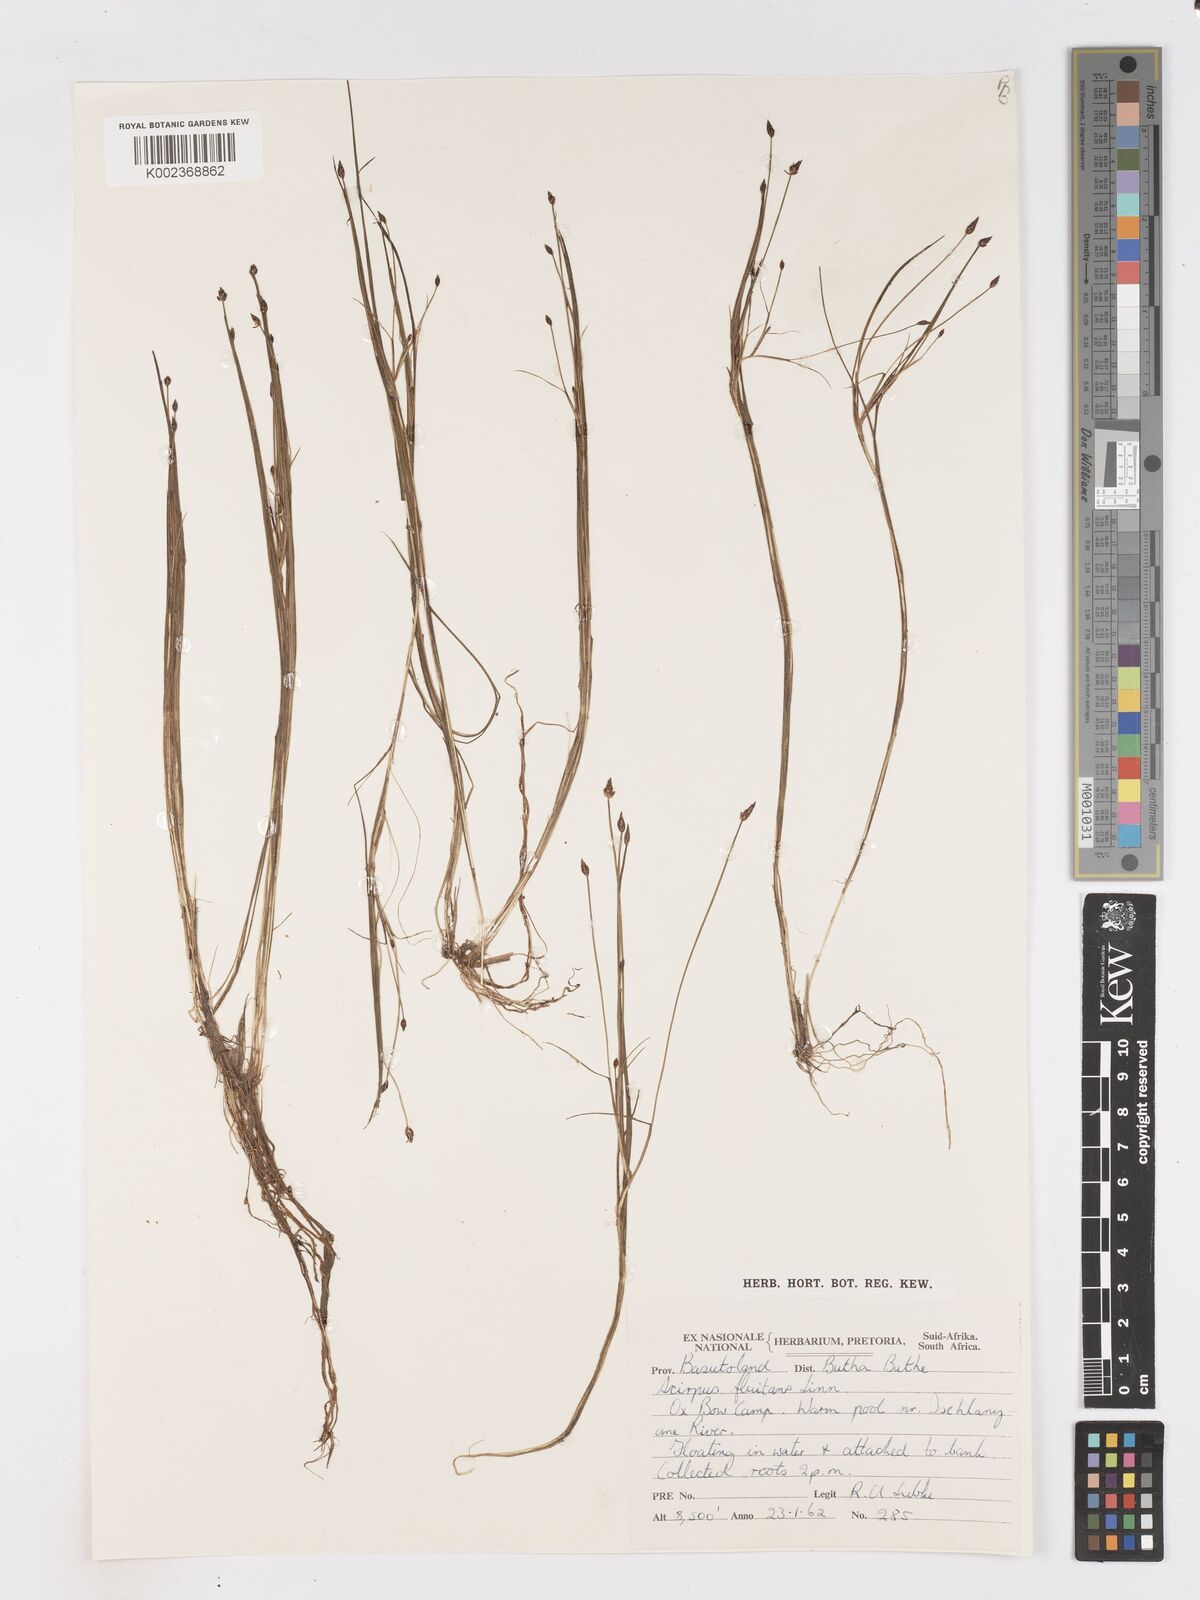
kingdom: Plantae
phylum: Tracheophyta
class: Liliopsida
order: Poales
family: Cyperaceae
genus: Isolepis
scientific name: Isolepis fluitans
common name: Floating club-rush
